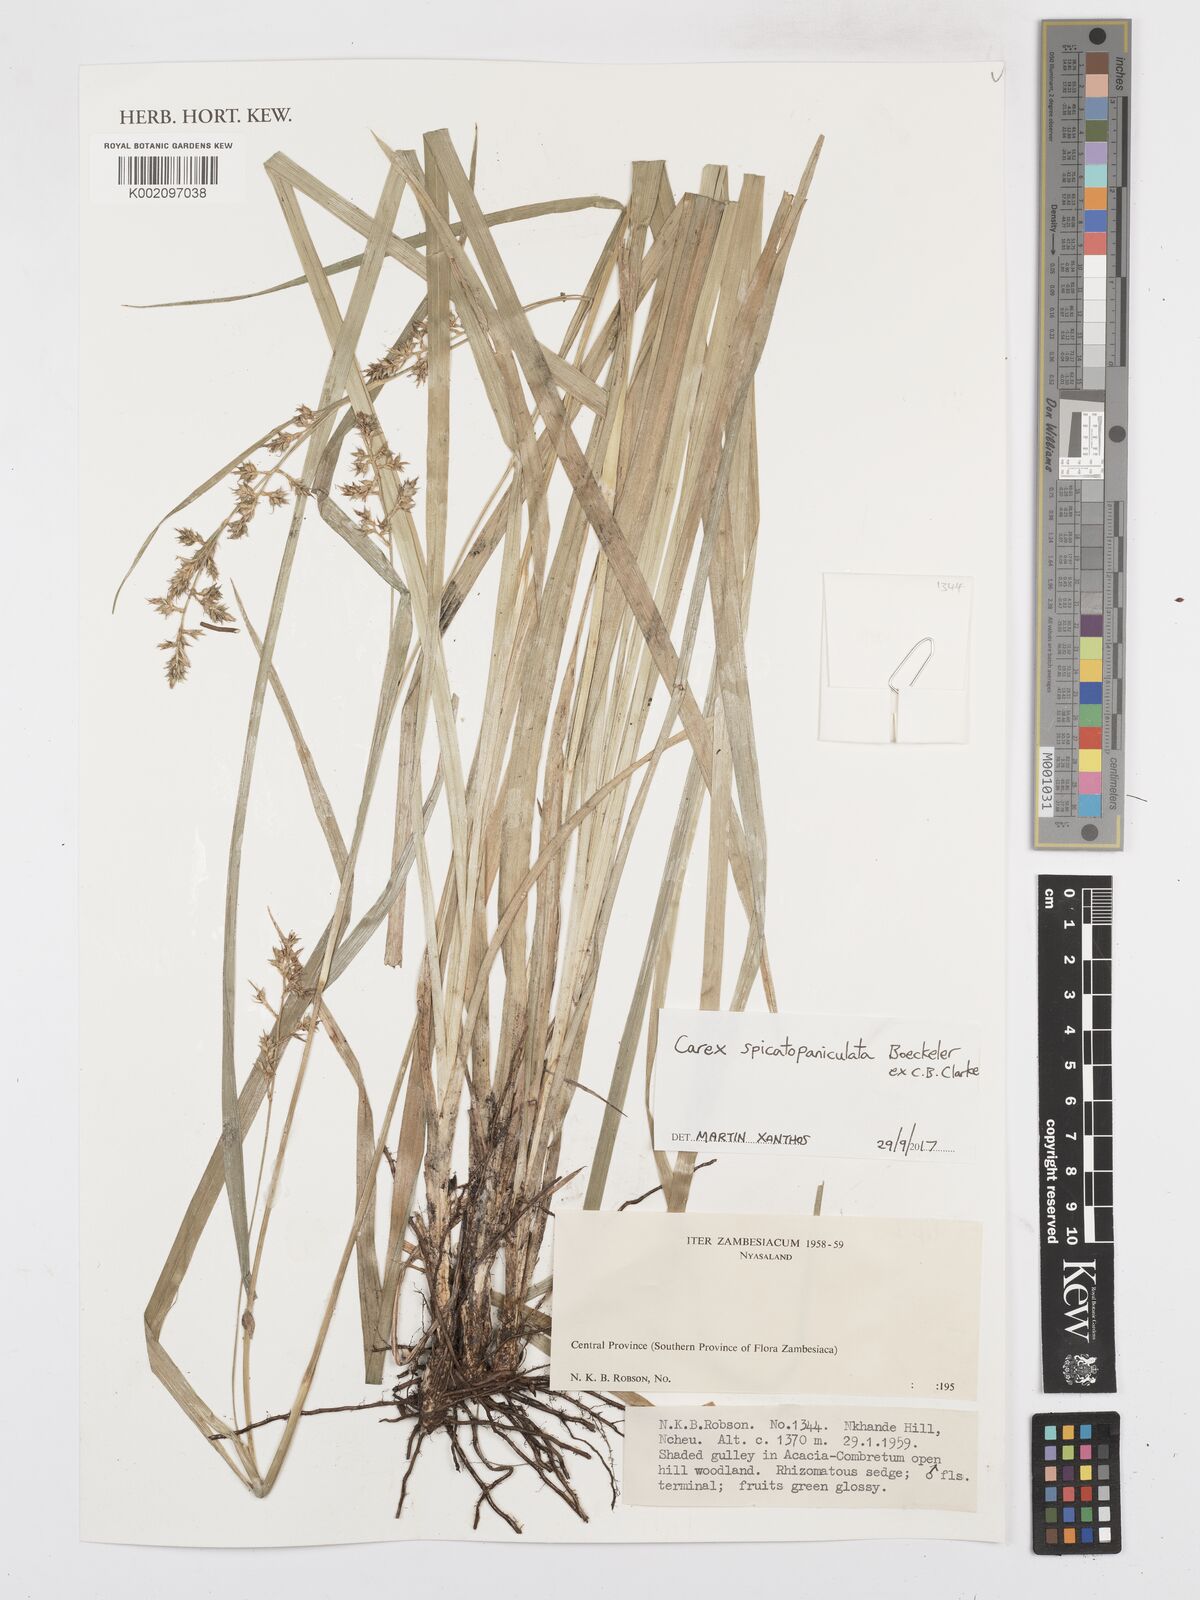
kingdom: Plantae
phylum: Tracheophyta
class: Liliopsida
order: Poales
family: Cyperaceae
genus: Carex
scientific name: Carex spicatopaniculata
